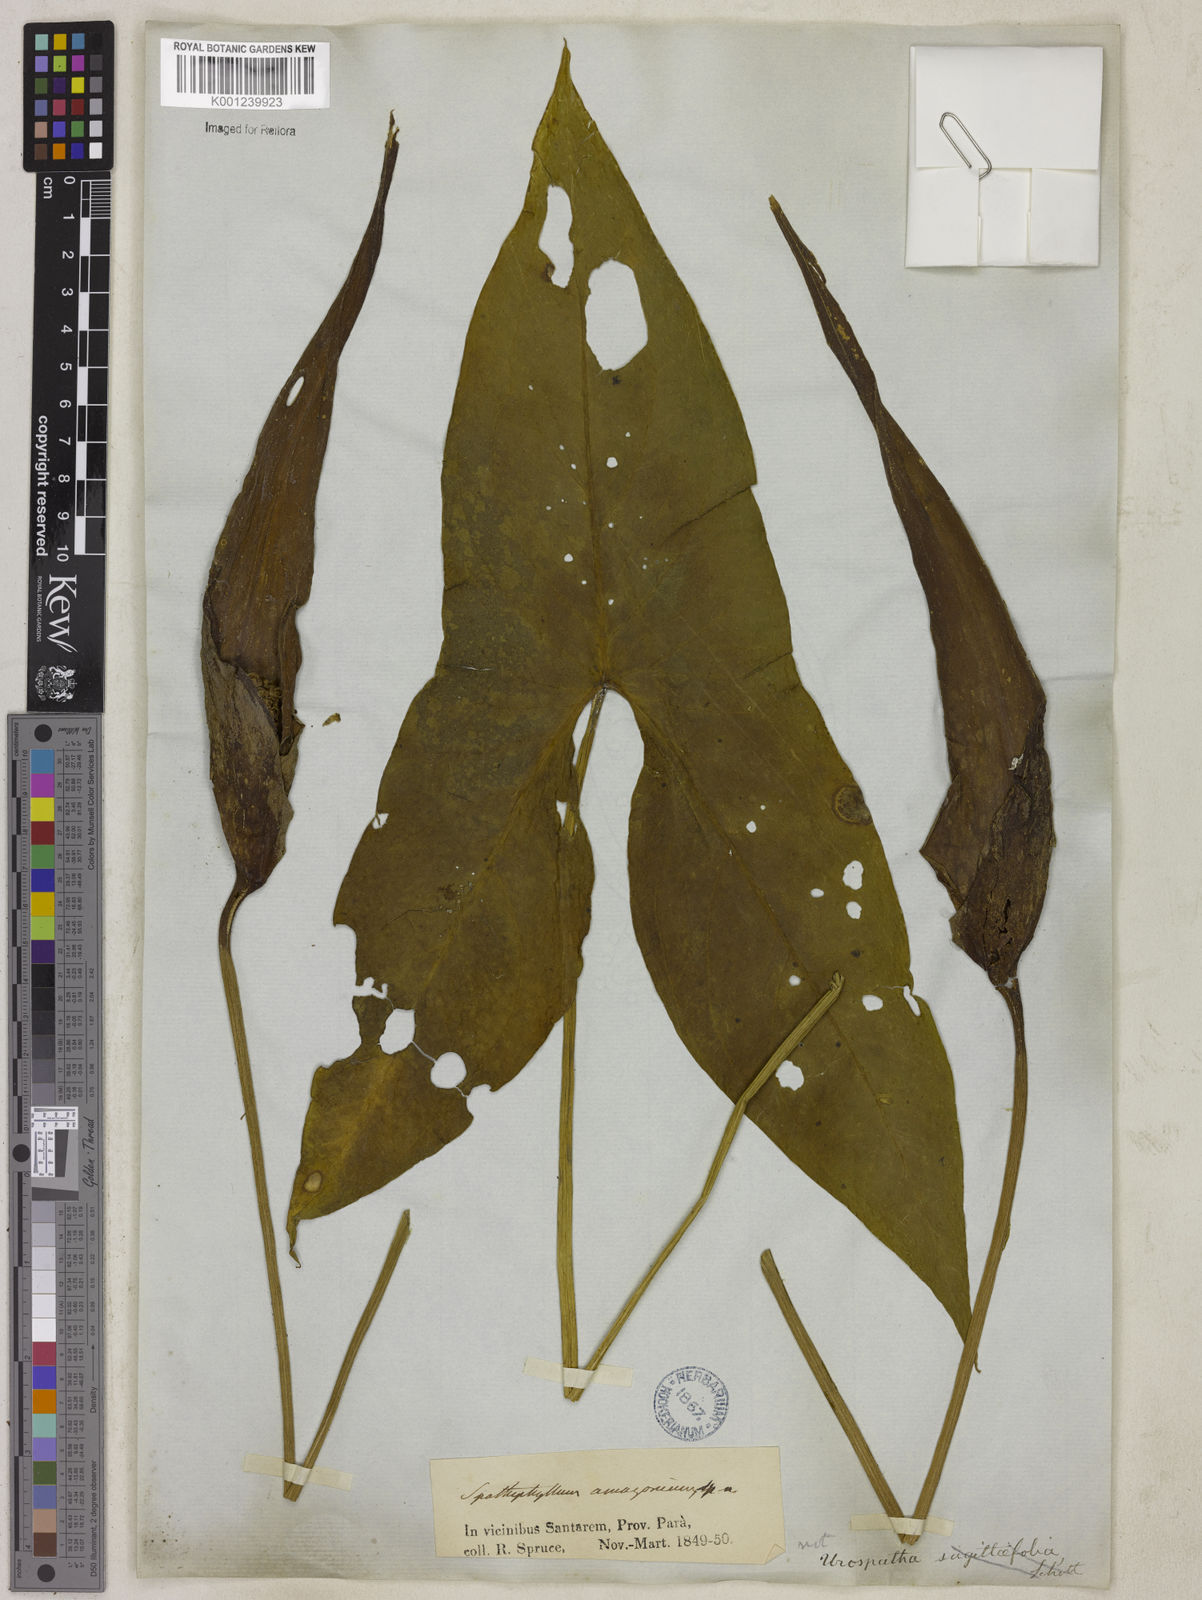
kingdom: Plantae
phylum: Tracheophyta
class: Liliopsida
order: Alismatales
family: Araceae
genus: Urospatha
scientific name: Urospatha sagittifolia
